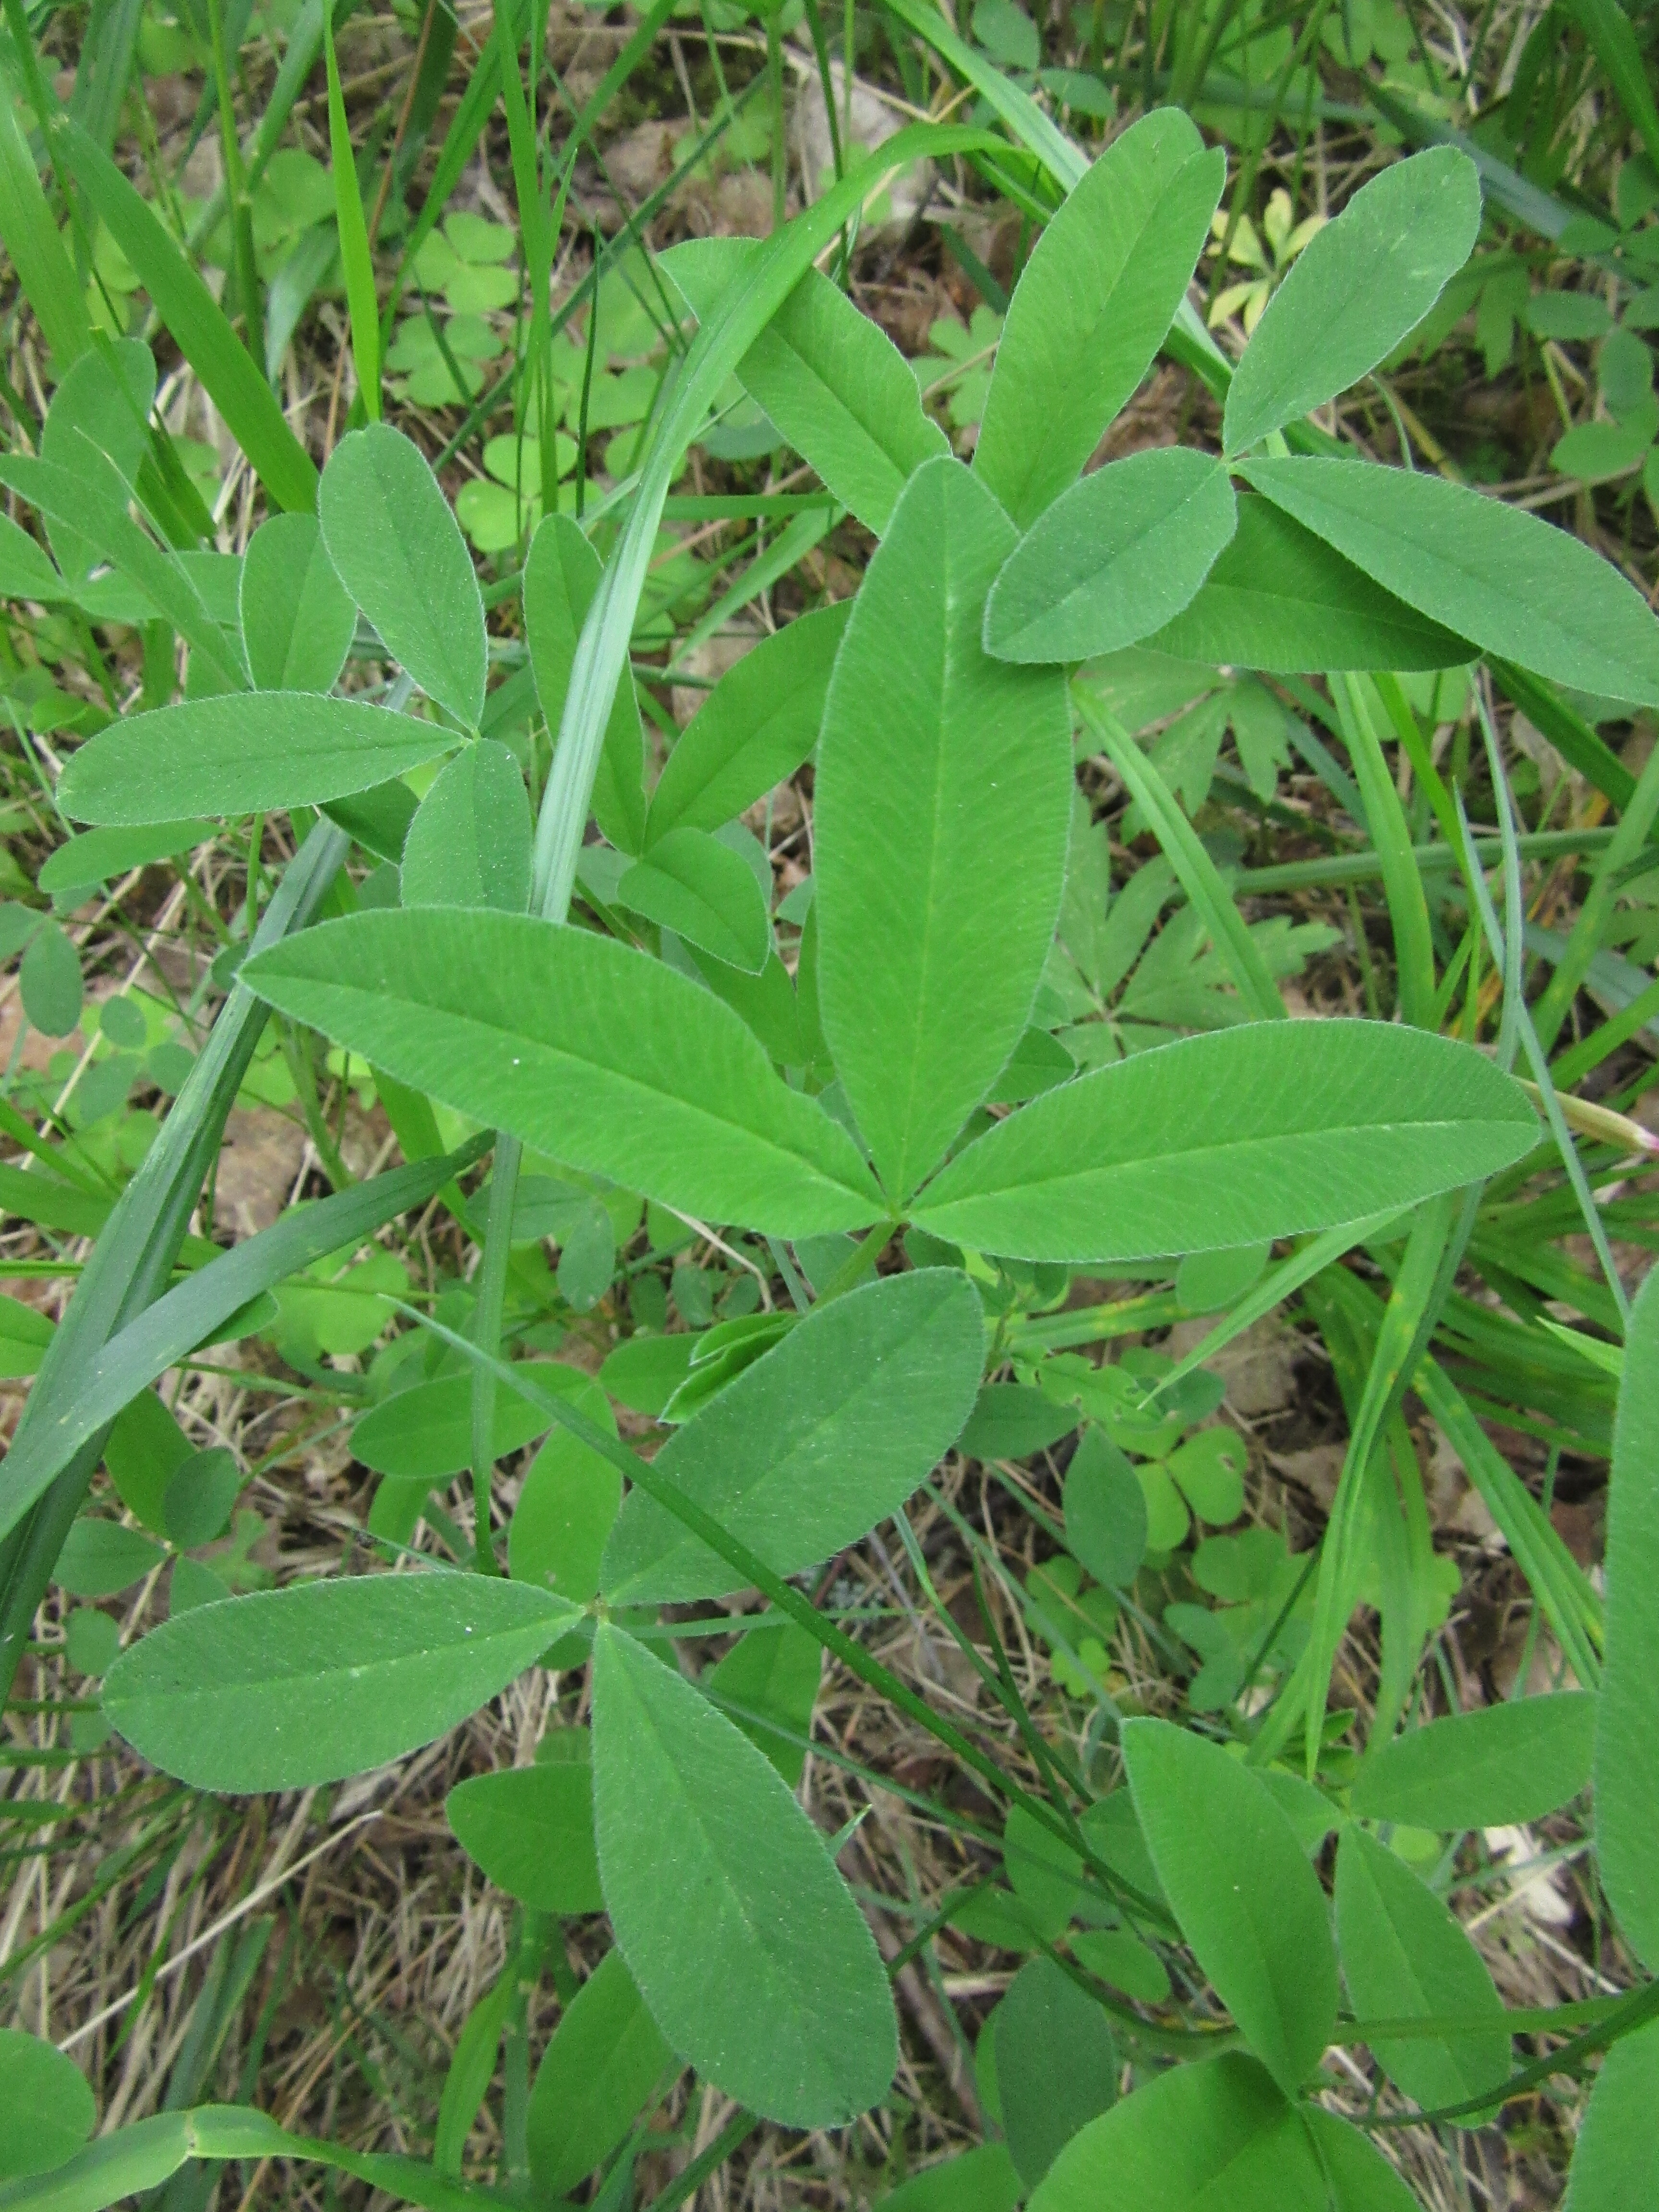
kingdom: Plantae
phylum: Tracheophyta
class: Magnoliopsida
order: Fabales
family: Fabaceae
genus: Trifolium
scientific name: Trifolium medium
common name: Zigzag clover
